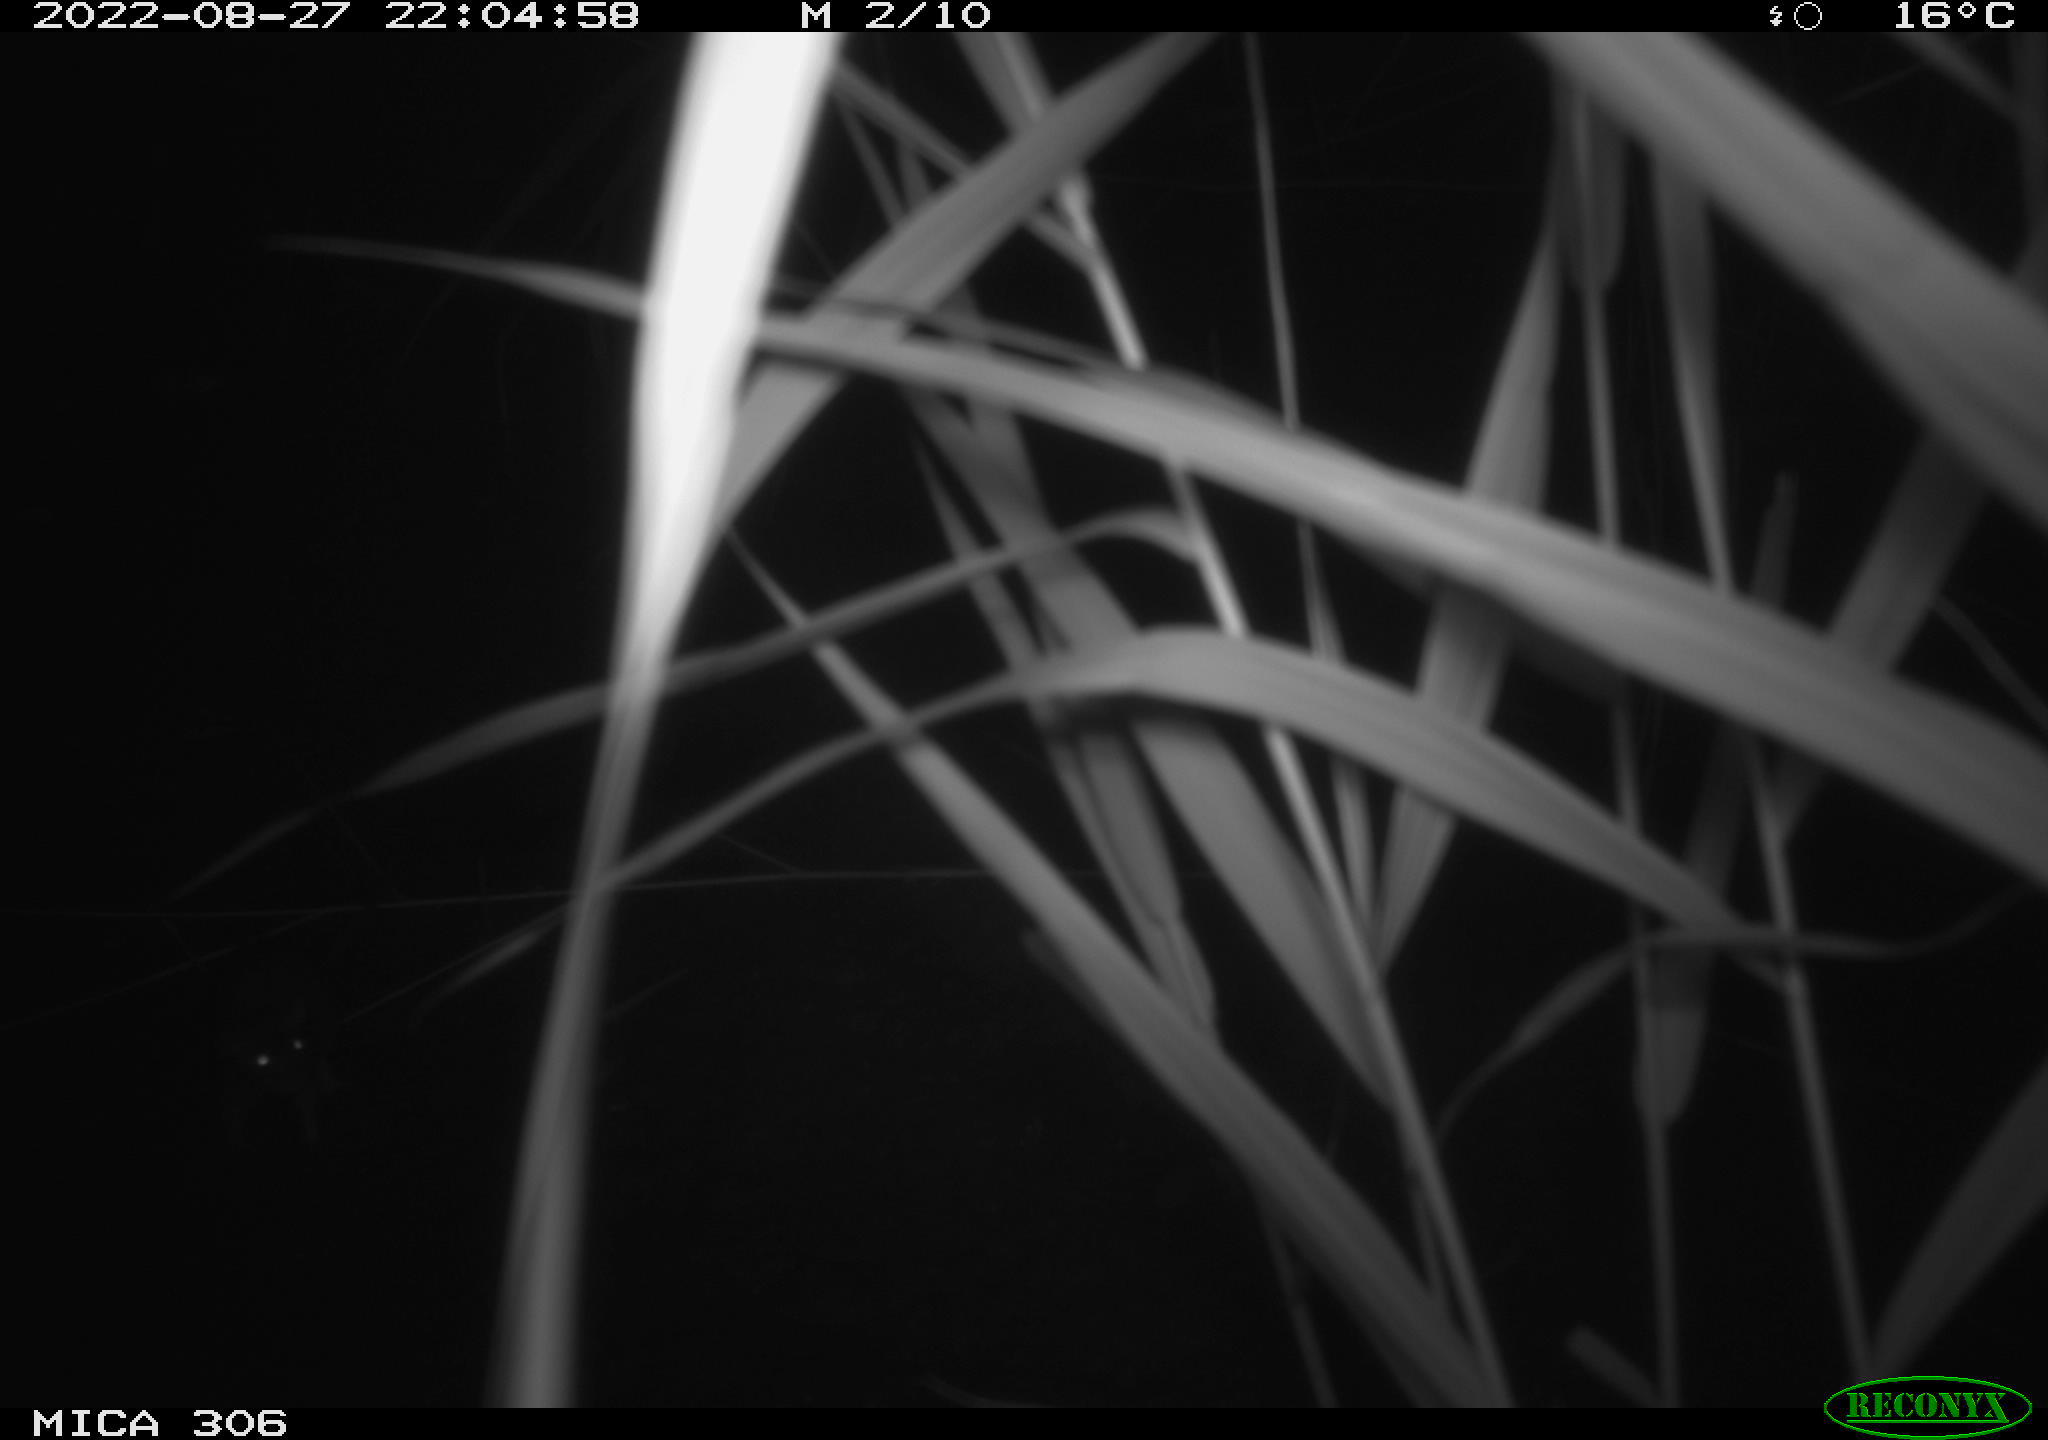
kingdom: Animalia
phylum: Chordata
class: Mammalia
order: Rodentia
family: Muridae
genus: Rattus
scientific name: Rattus norvegicus
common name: Brown rat
